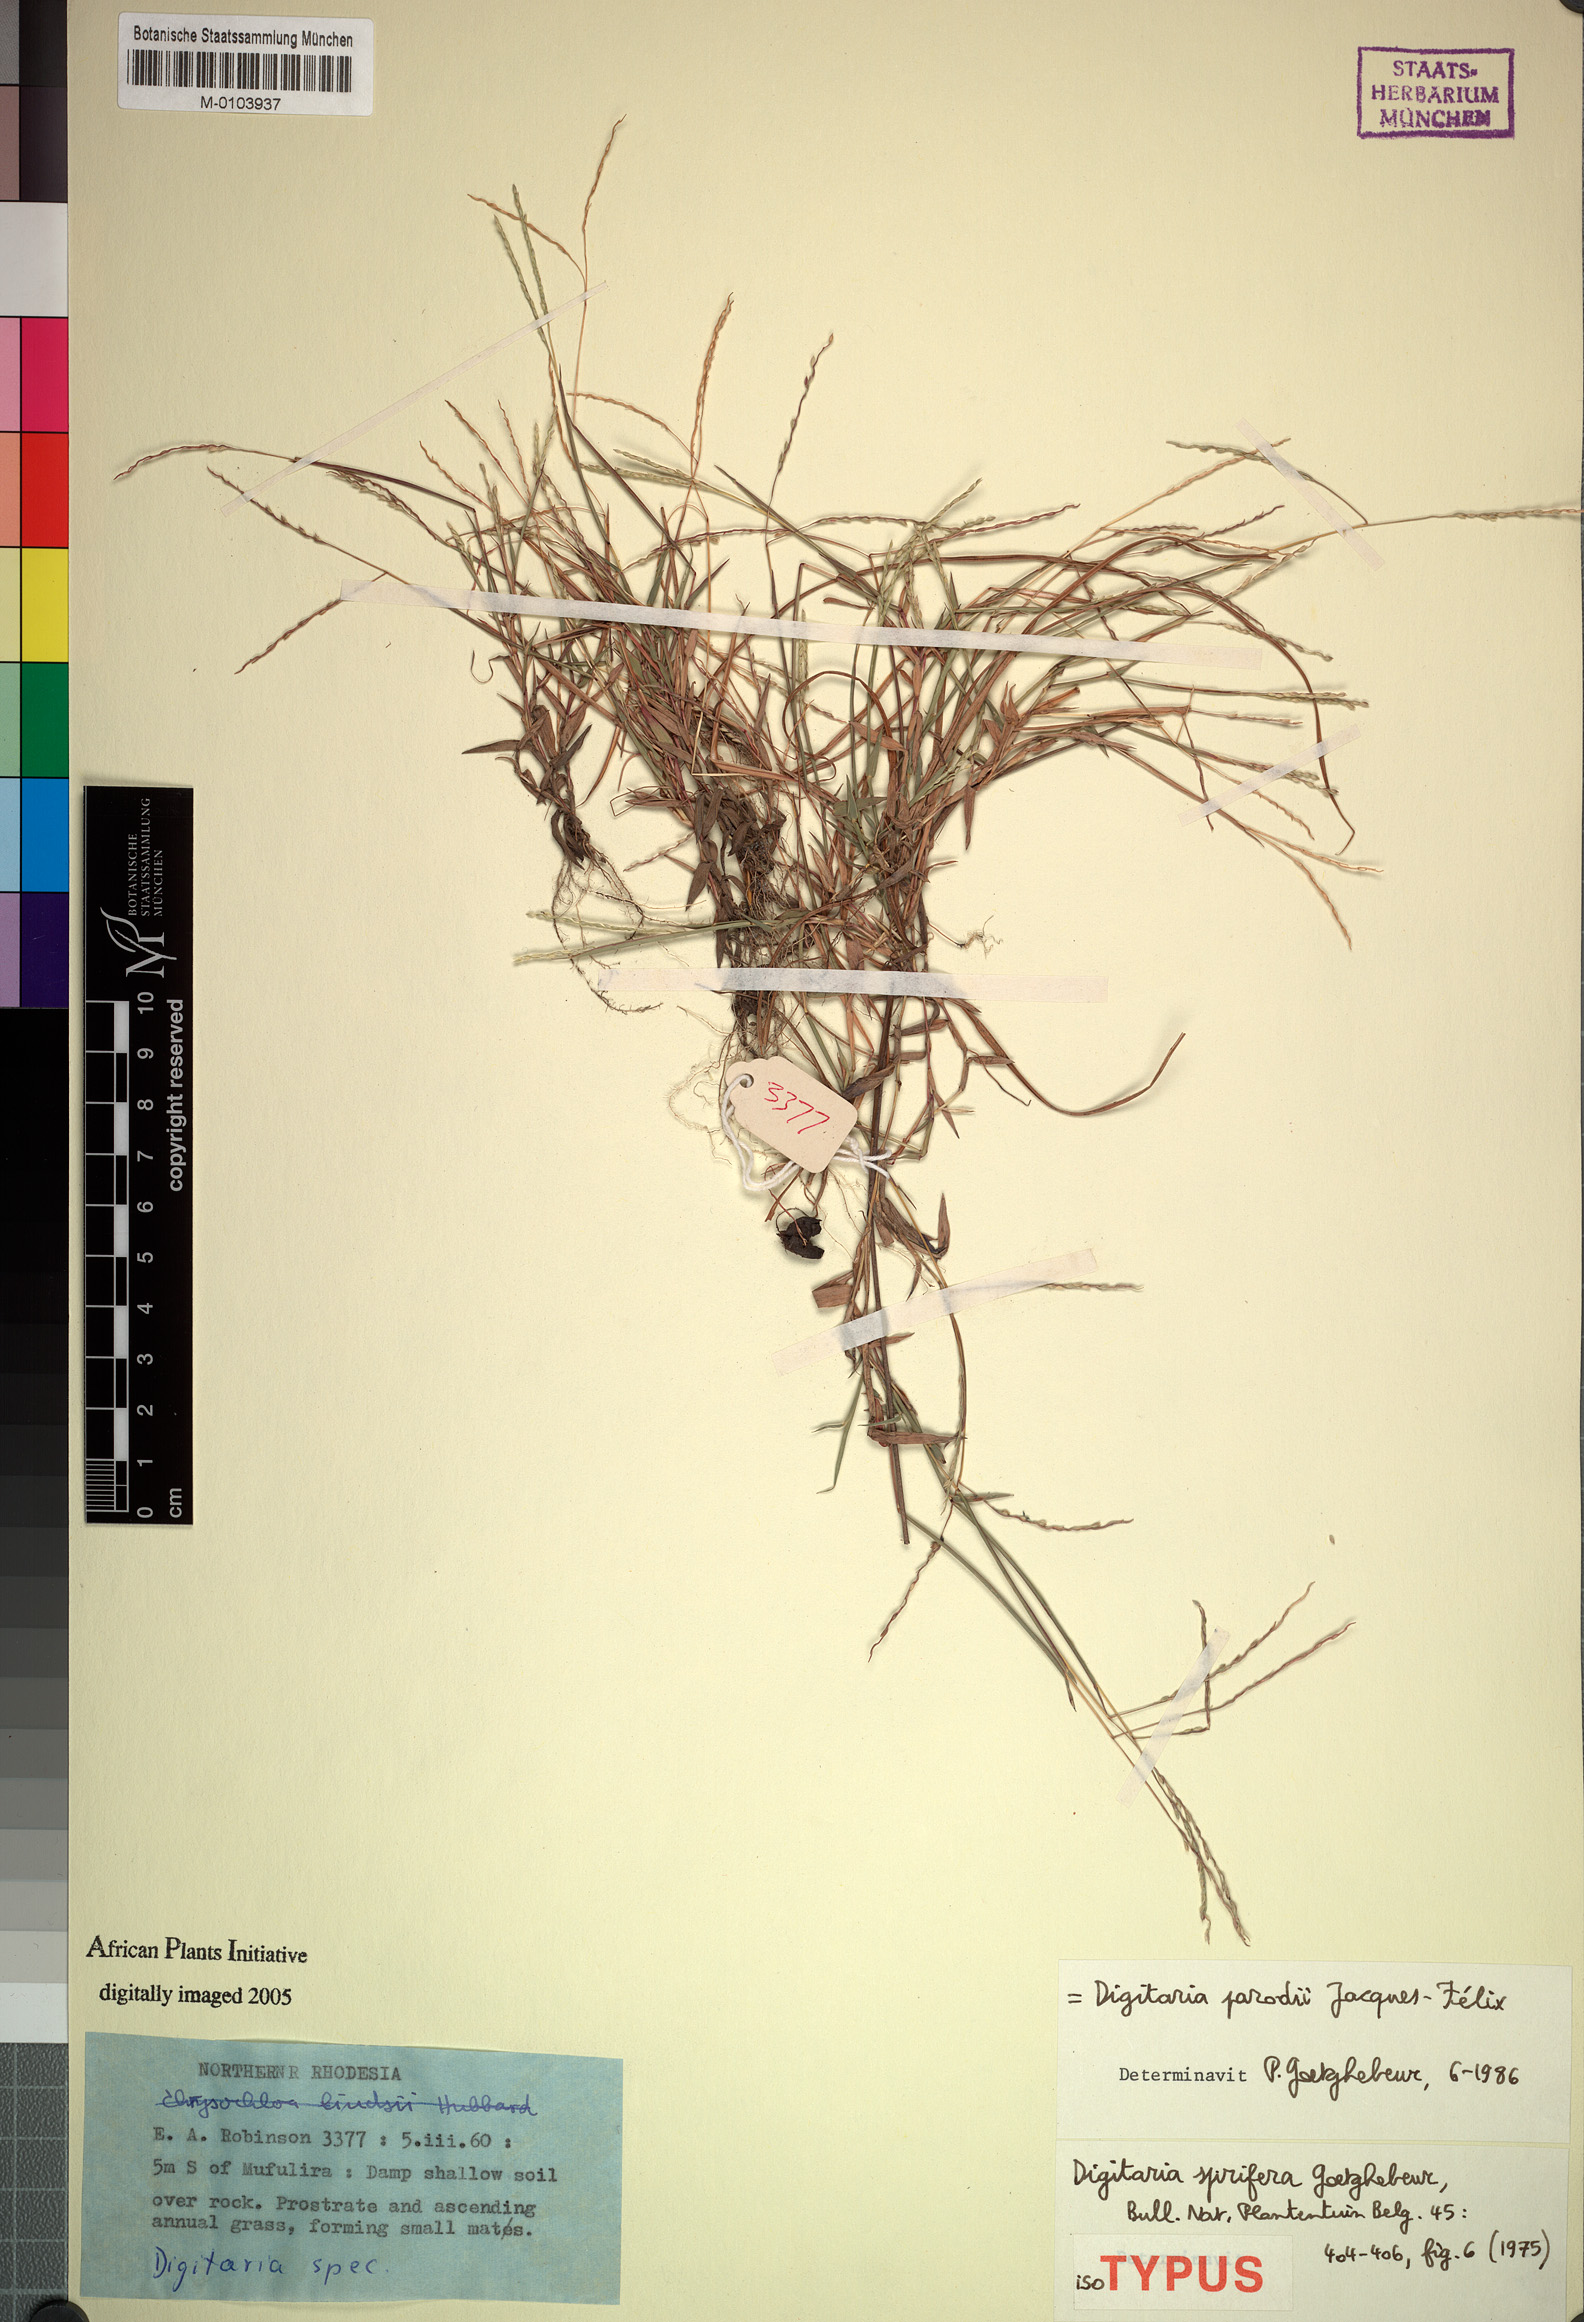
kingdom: Plantae
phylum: Tracheophyta
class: Liliopsida
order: Poales
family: Poaceae
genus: Digitaria
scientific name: Digitaria parodii
